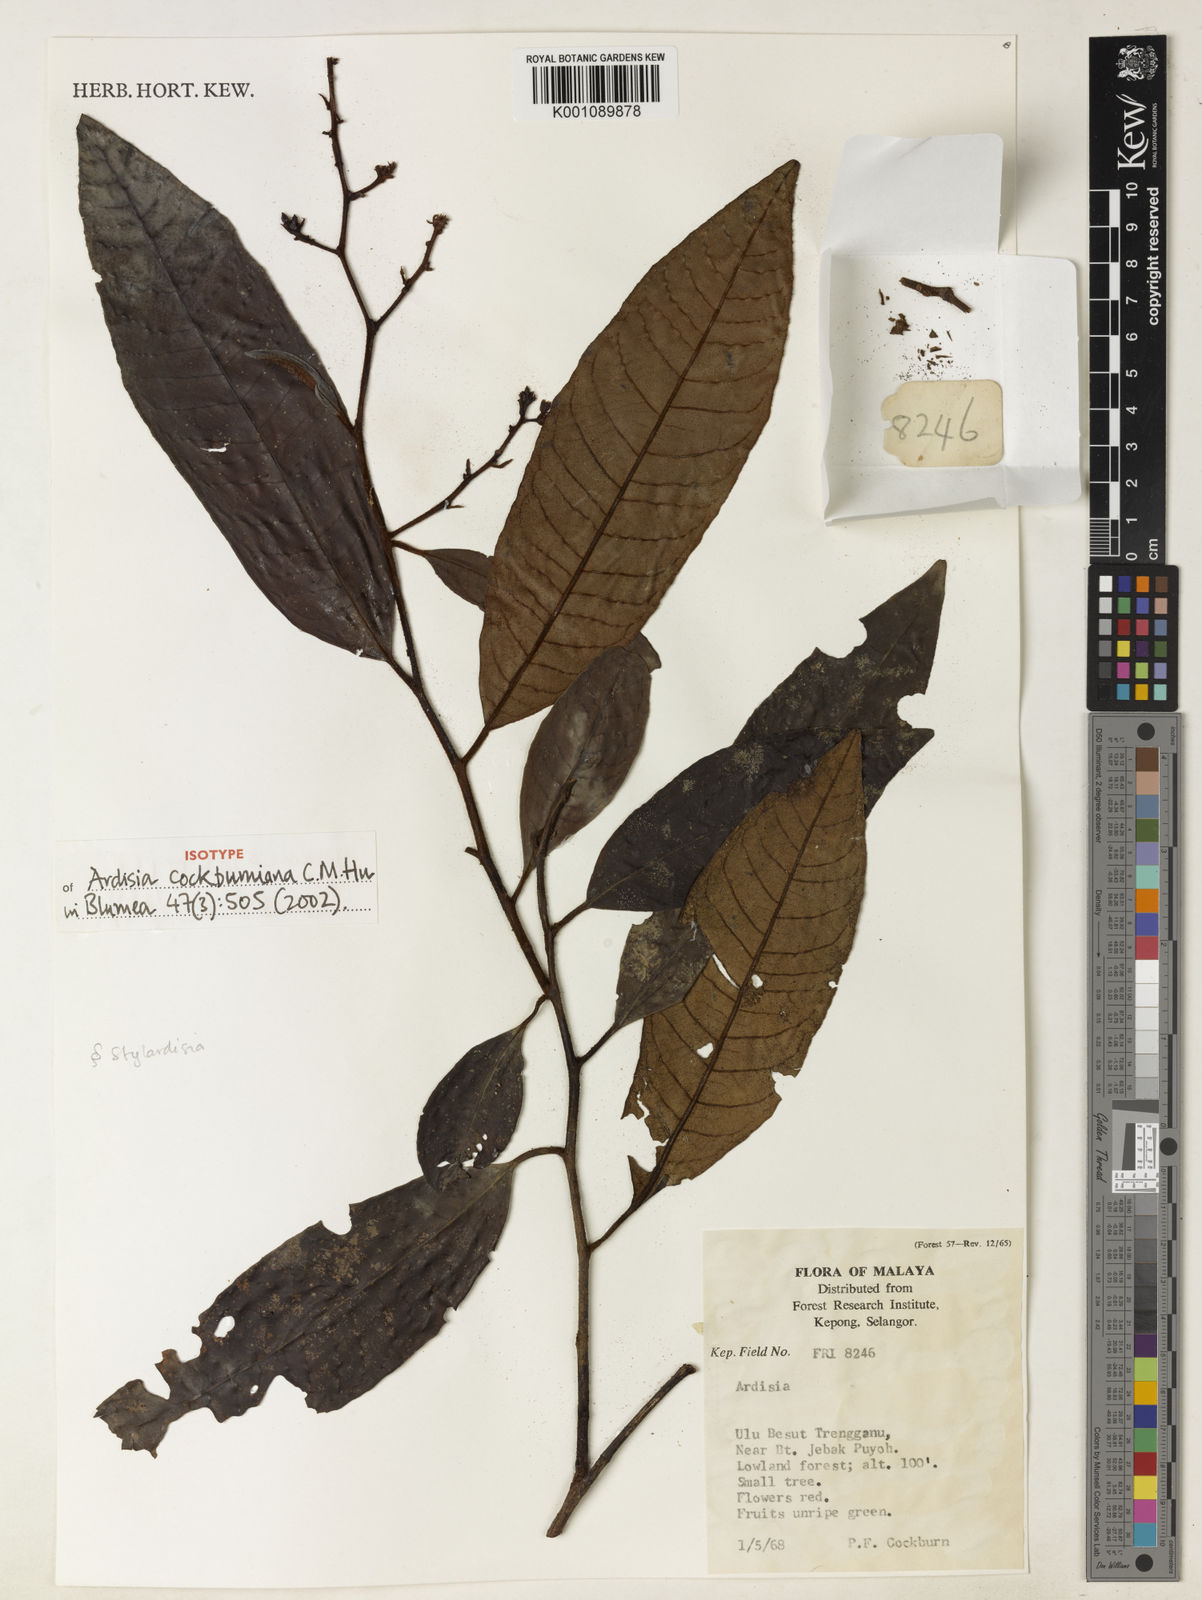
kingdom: Plantae
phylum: Tracheophyta
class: Magnoliopsida
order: Ericales
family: Primulaceae
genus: Ardisia
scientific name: Ardisia cockburniana
